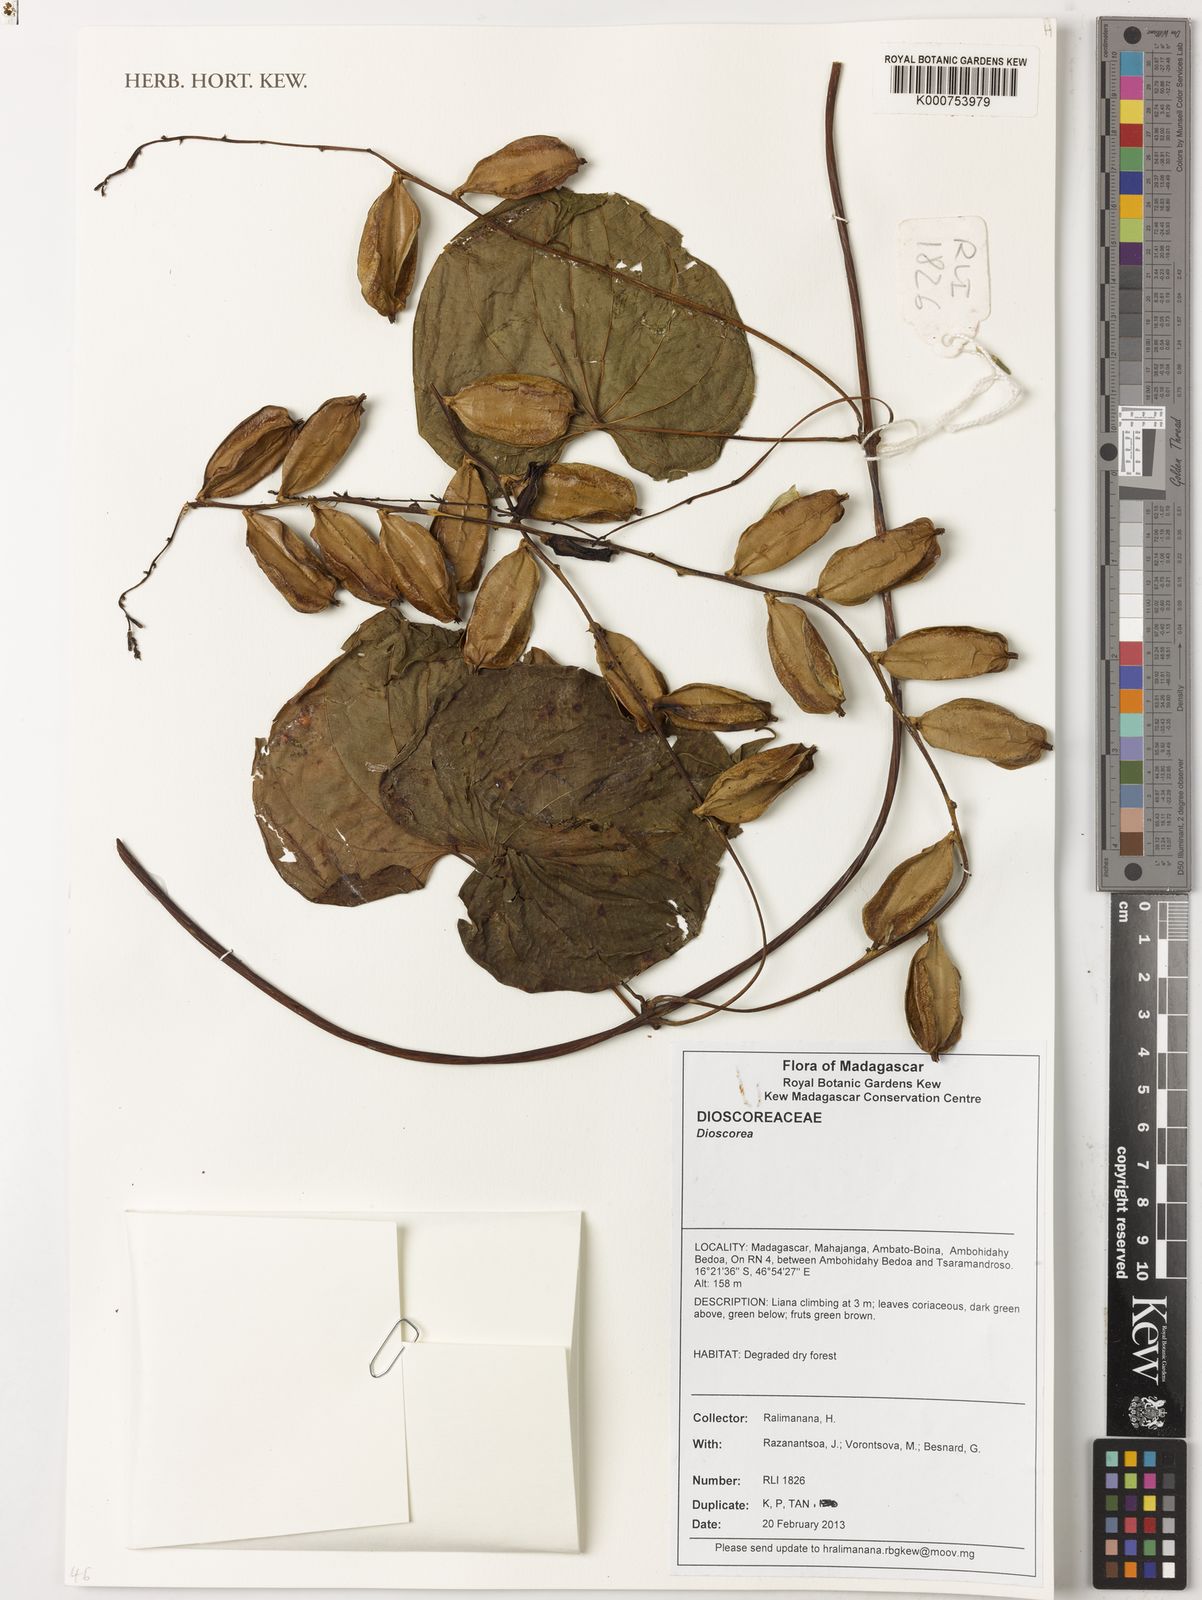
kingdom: Plantae
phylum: Tracheophyta
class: Liliopsida
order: Dioscoreales
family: Dioscoreaceae
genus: Dioscorea
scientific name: Dioscorea
